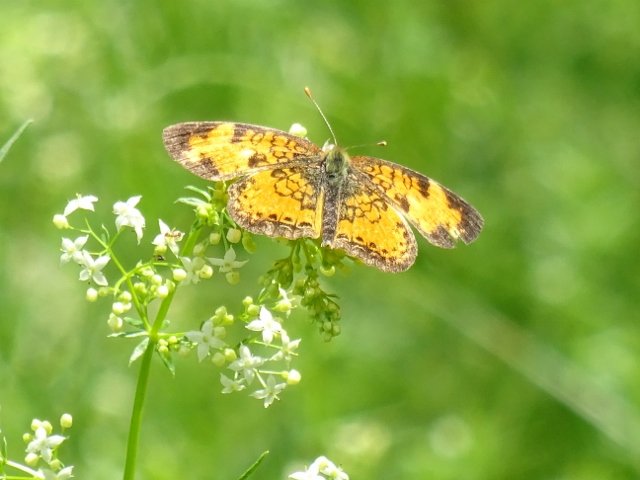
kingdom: Animalia
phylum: Arthropoda
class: Insecta
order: Lepidoptera
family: Nymphalidae
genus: Phyciodes
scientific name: Phyciodes tharos
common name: Northern Crescent
